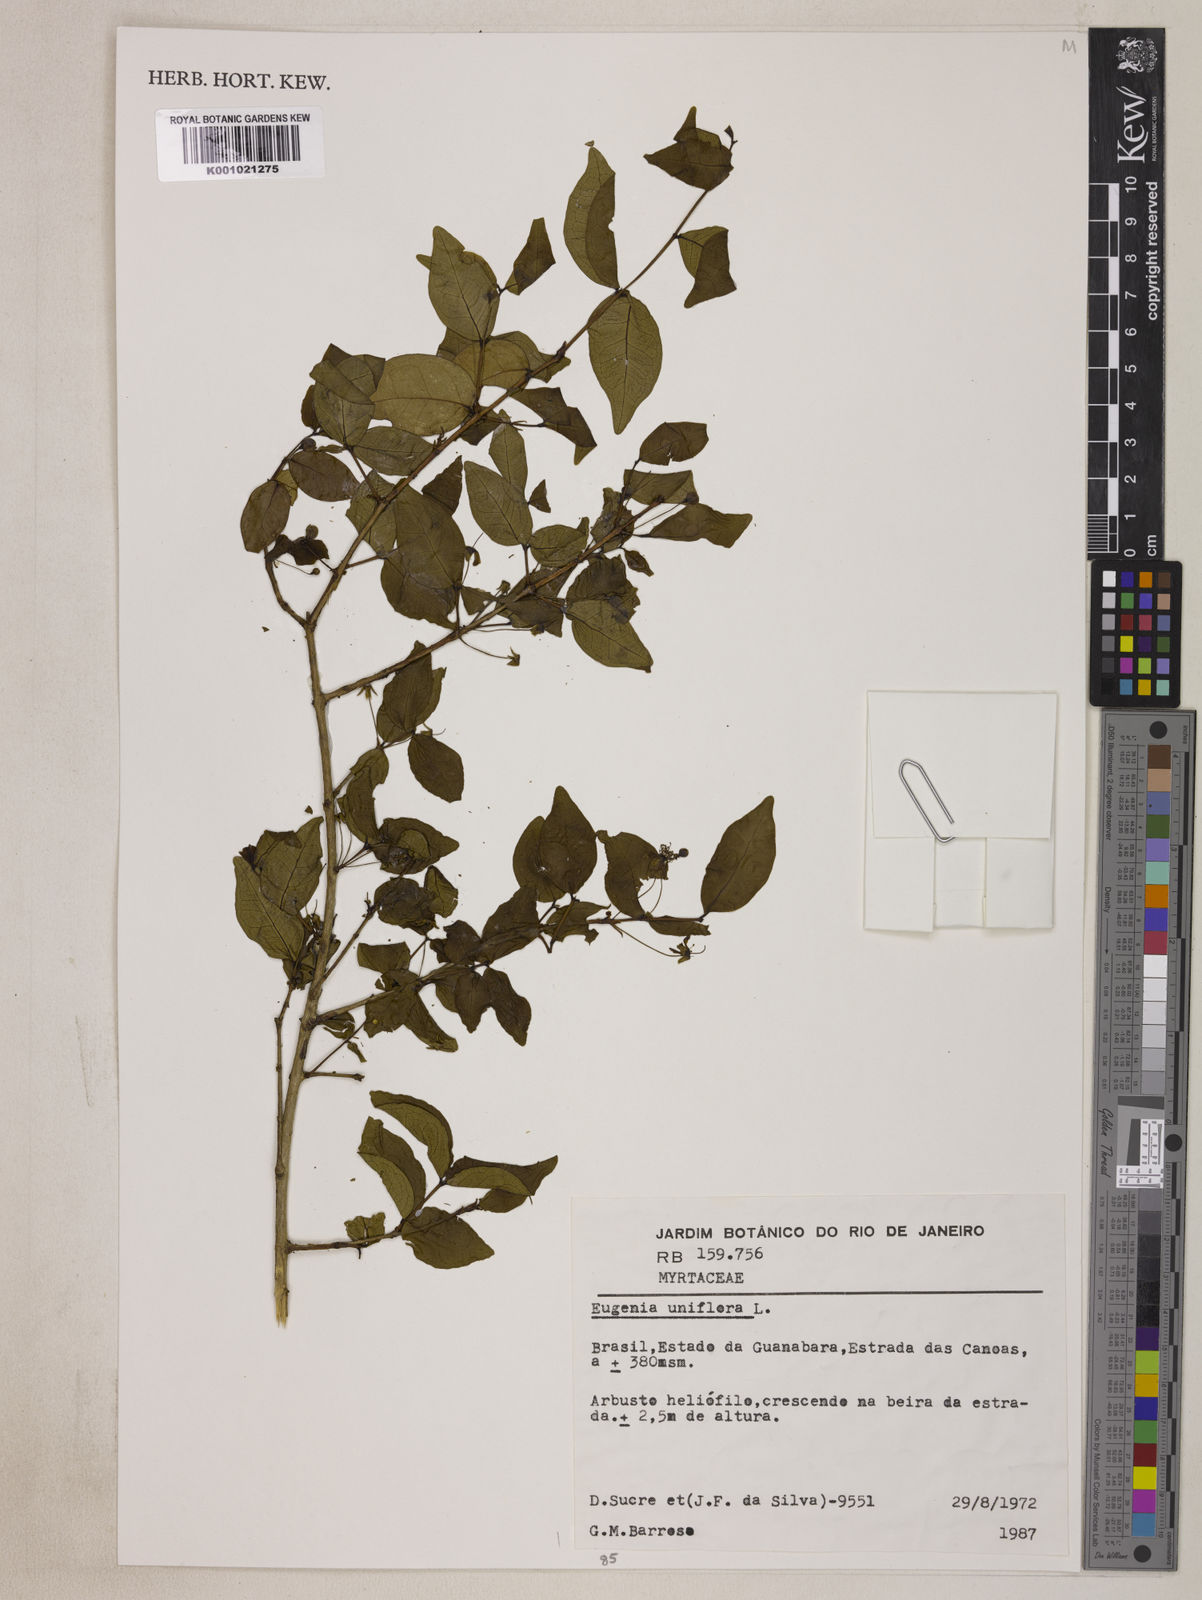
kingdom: Plantae
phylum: Tracheophyta
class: Magnoliopsida
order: Myrtales
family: Myrtaceae
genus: Eugenia
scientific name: Eugenia uniflora
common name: Surinam cherry
